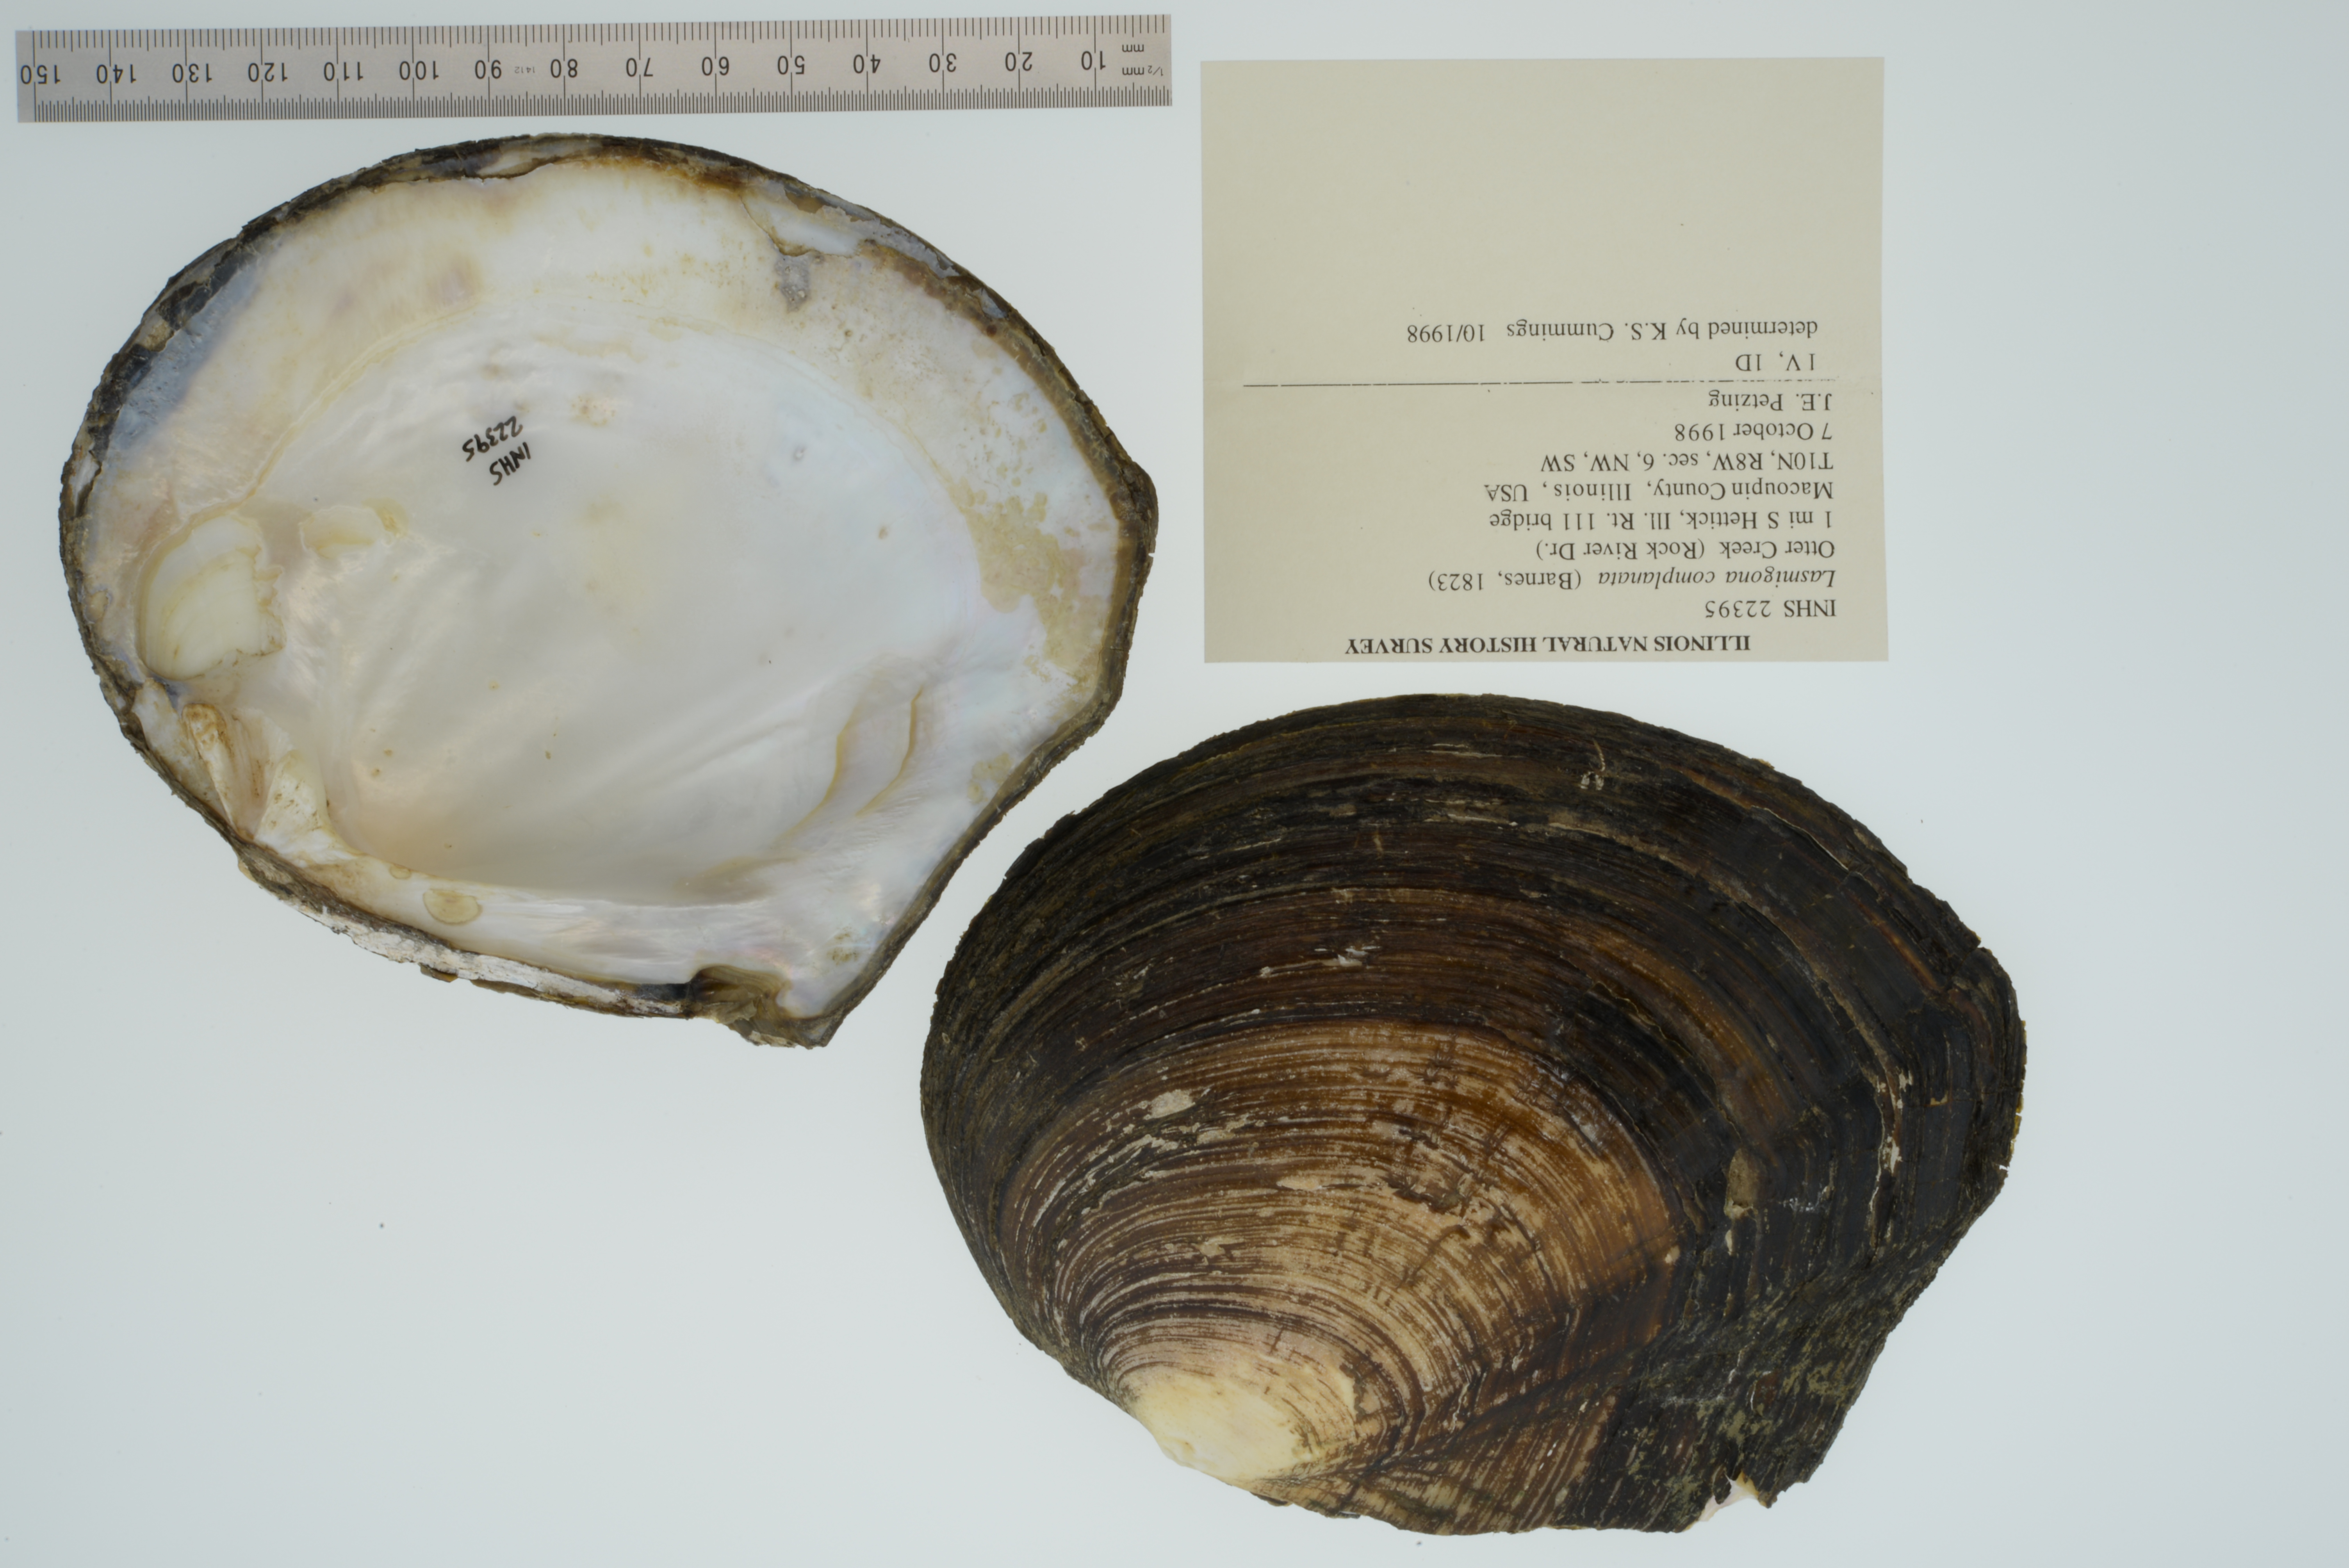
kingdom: Animalia
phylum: Mollusca
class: Bivalvia
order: Unionida
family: Unionidae
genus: Lasmigona
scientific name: Lasmigona complanata
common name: White heelsplitter
